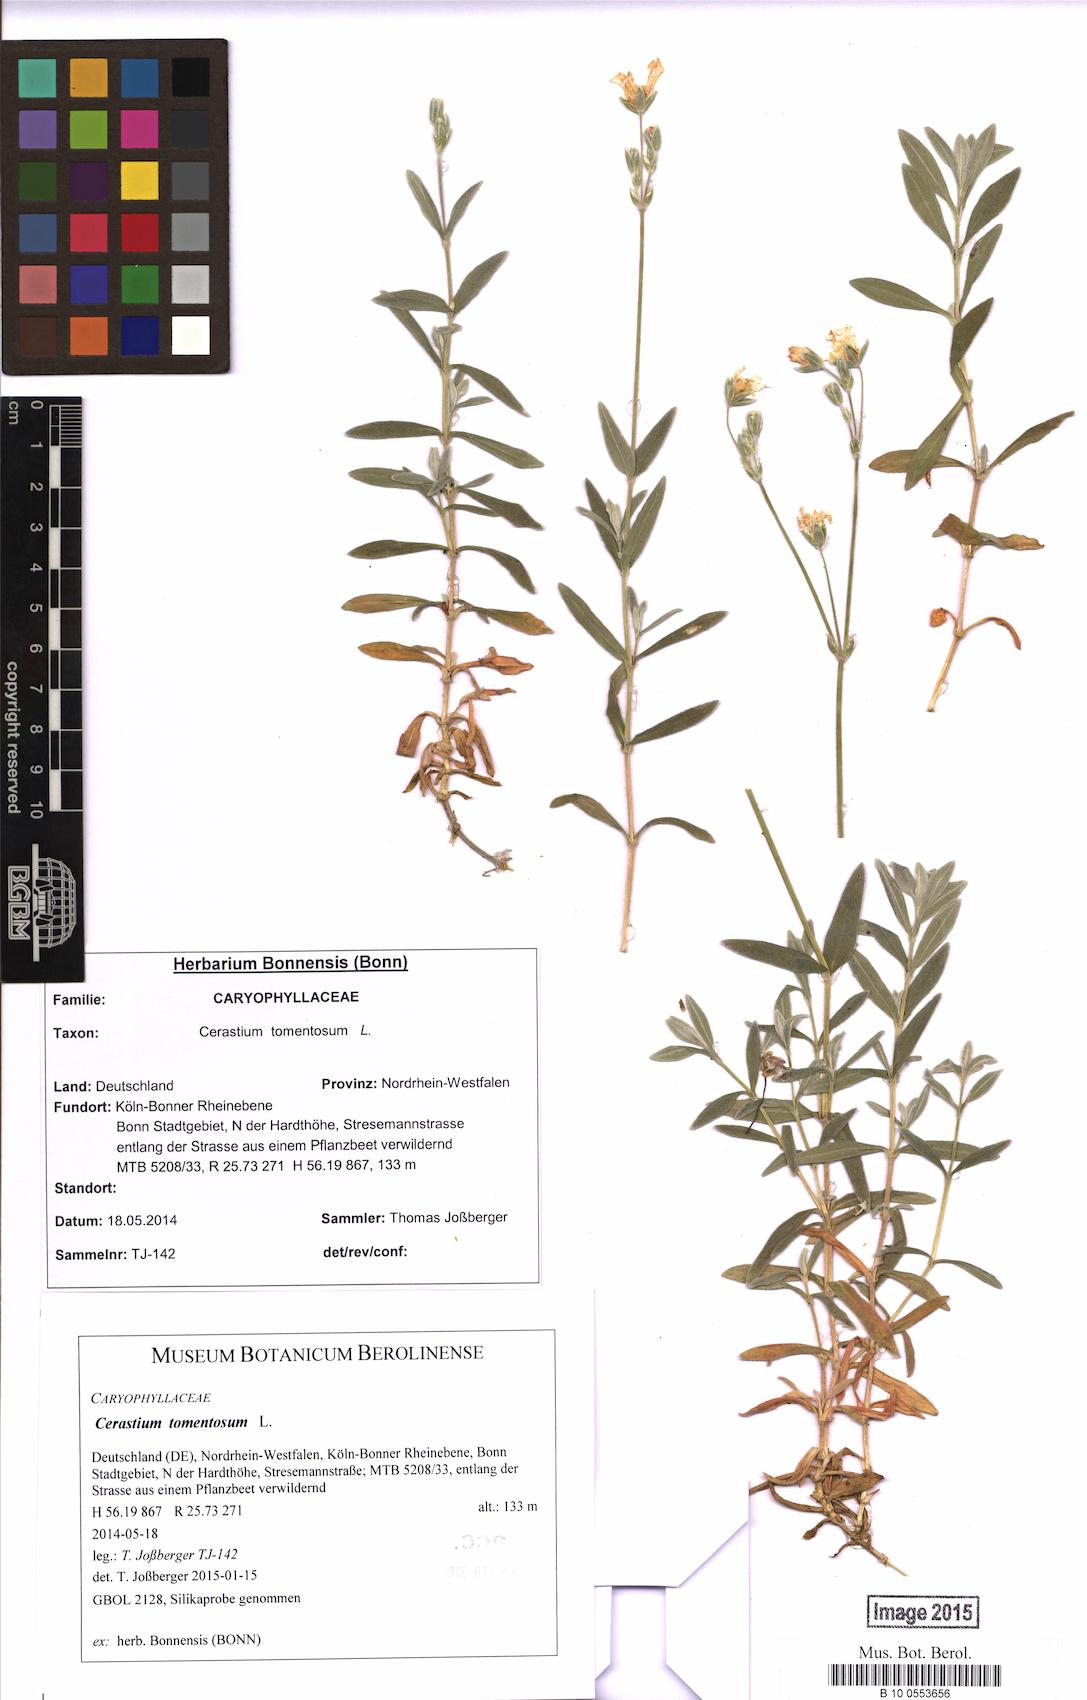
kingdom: Plantae
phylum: Tracheophyta
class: Magnoliopsida
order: Caryophyllales
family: Caryophyllaceae
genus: Cerastium
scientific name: Cerastium tomentosum
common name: Snow-in-summer
